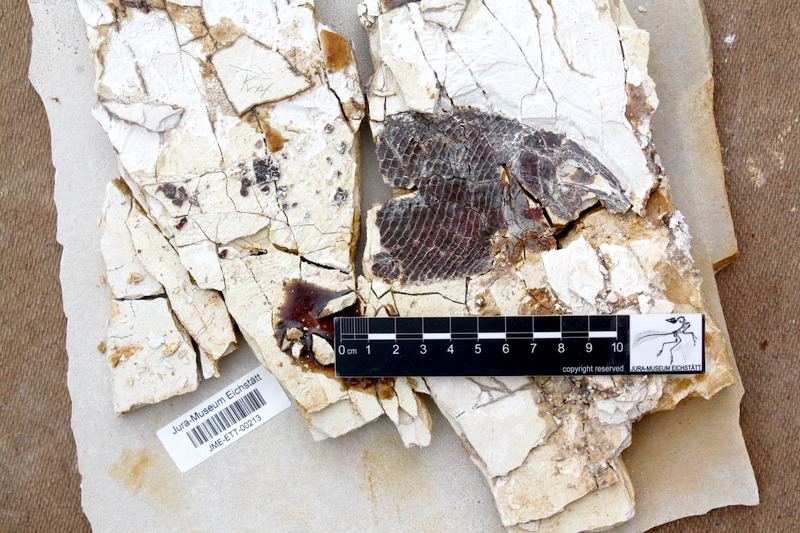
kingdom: Animalia
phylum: Chordata
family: Callipurbeckiidae
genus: Macrosemimimus
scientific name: Macrosemimimus fegerti
